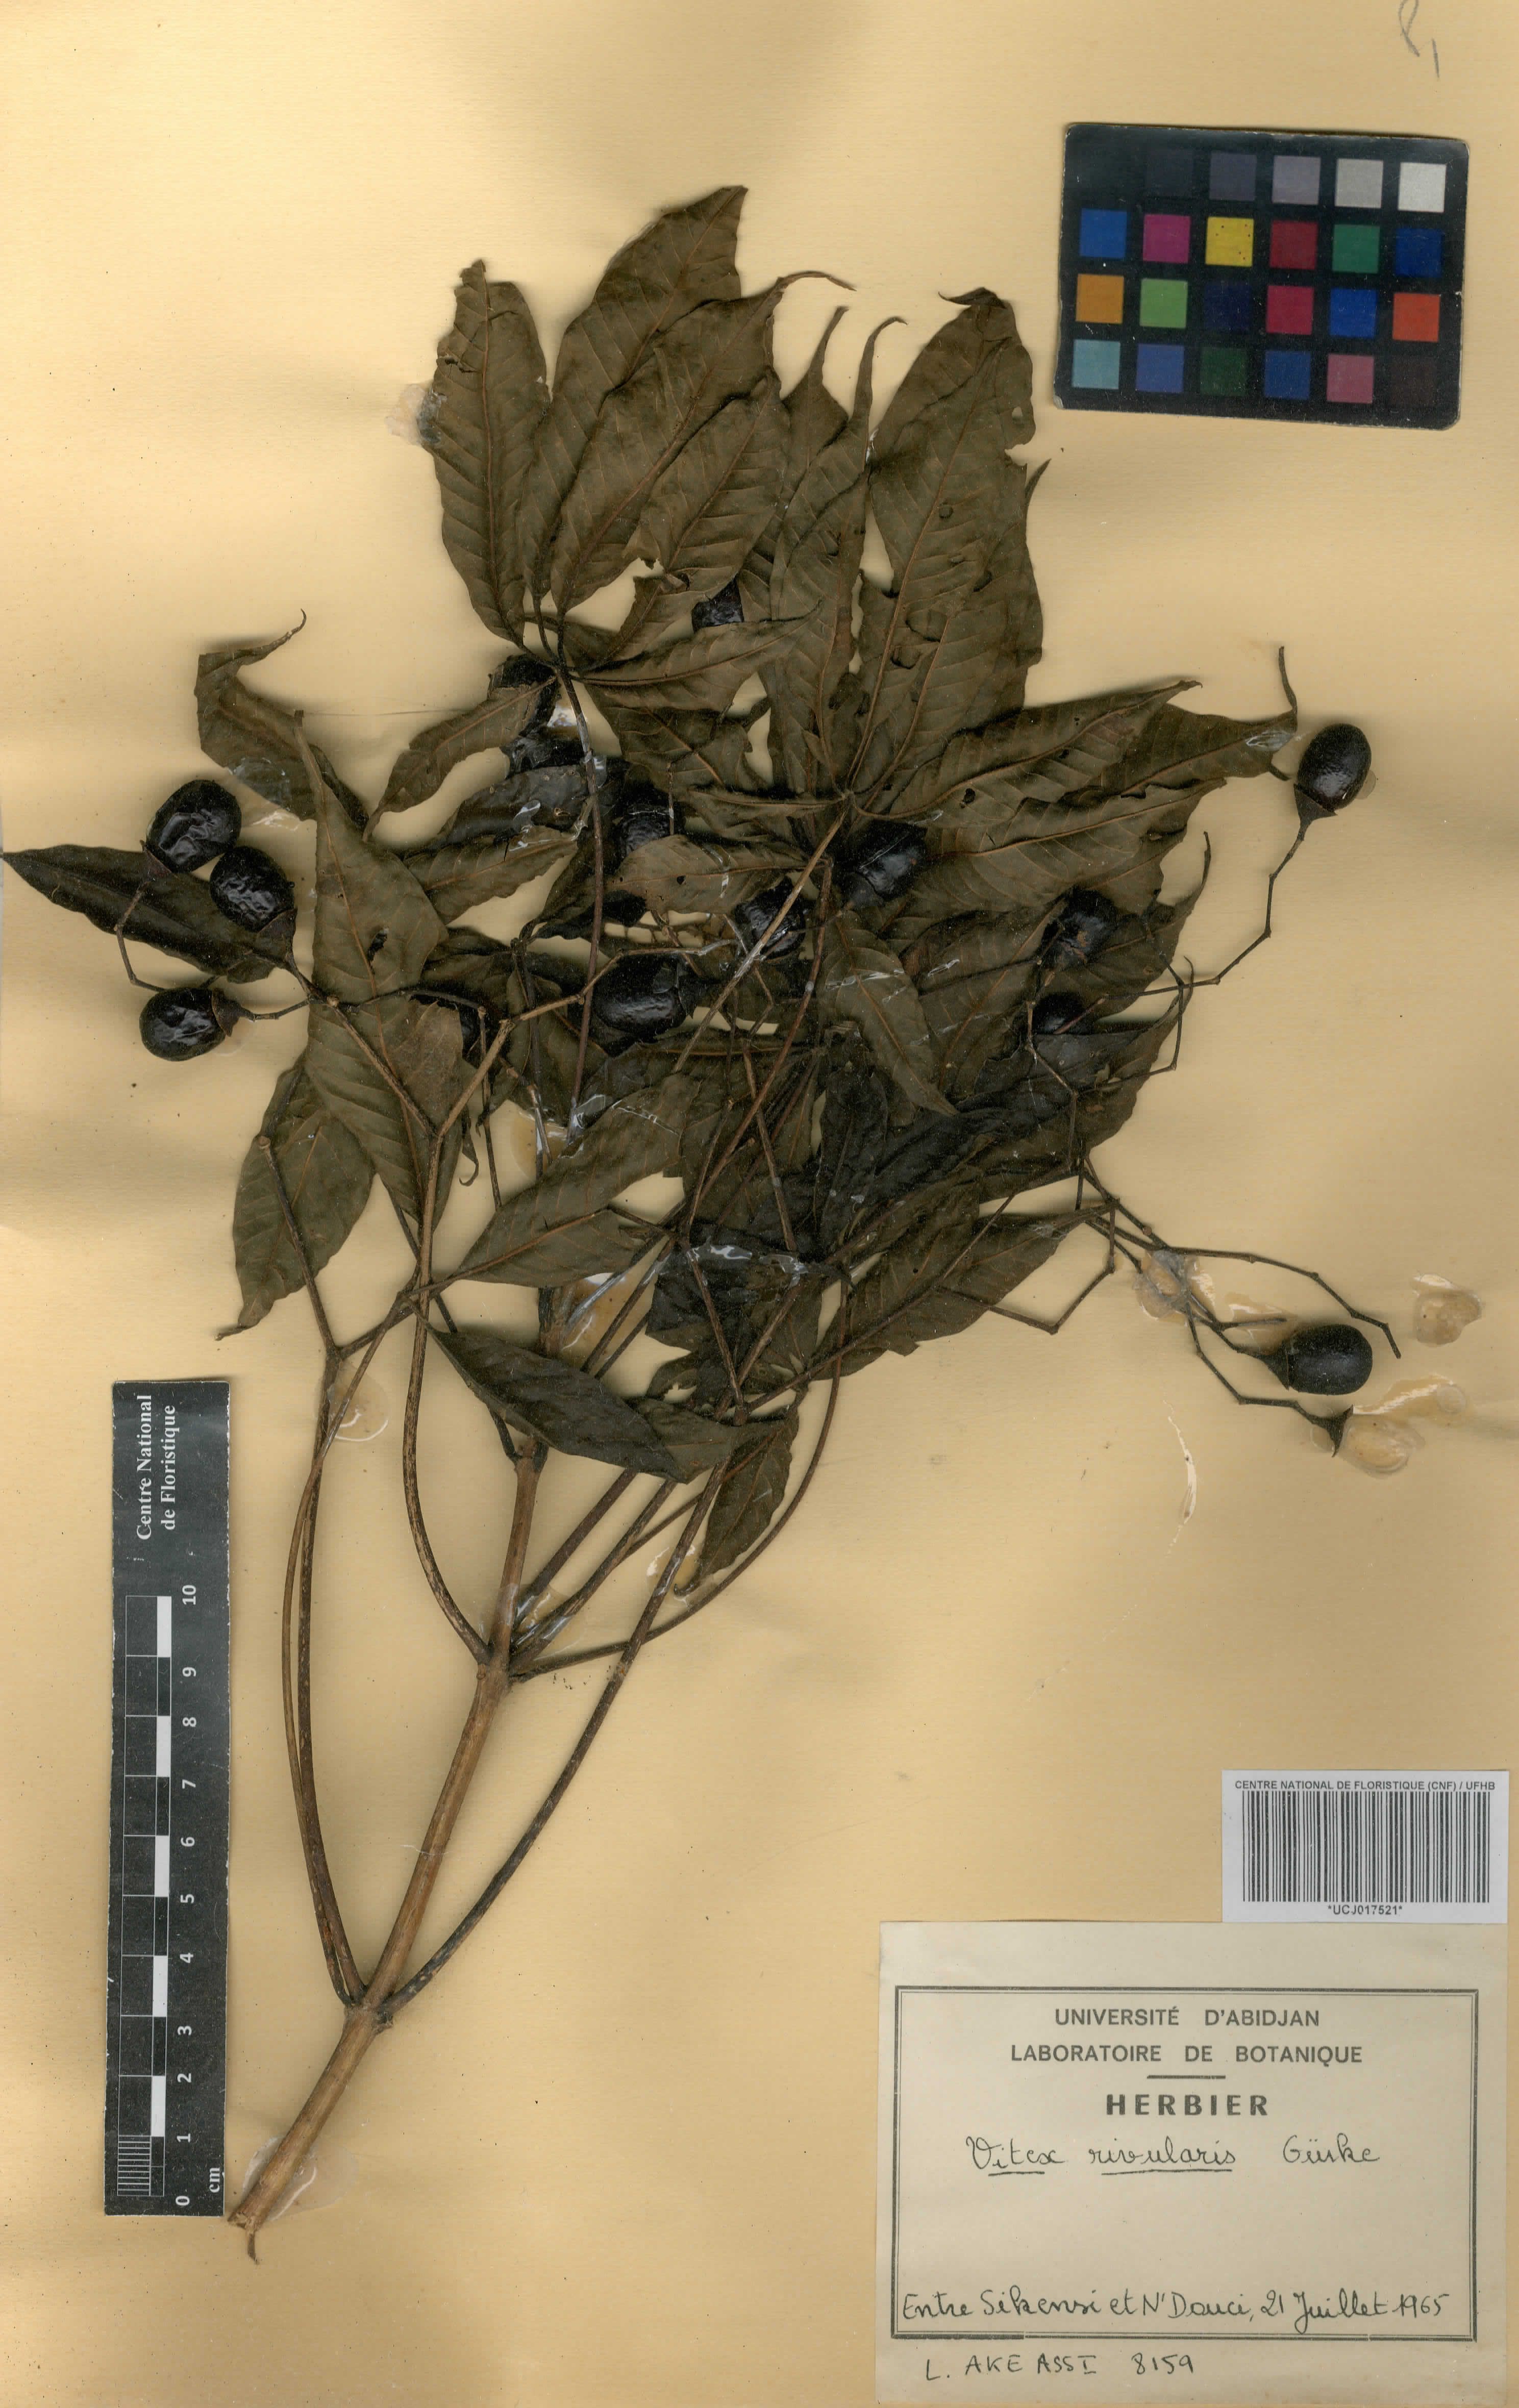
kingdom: Plantae
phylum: Tracheophyta
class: Magnoliopsida
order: Lamiales
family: Lamiaceae
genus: Vitex
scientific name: Vitex rivularis
